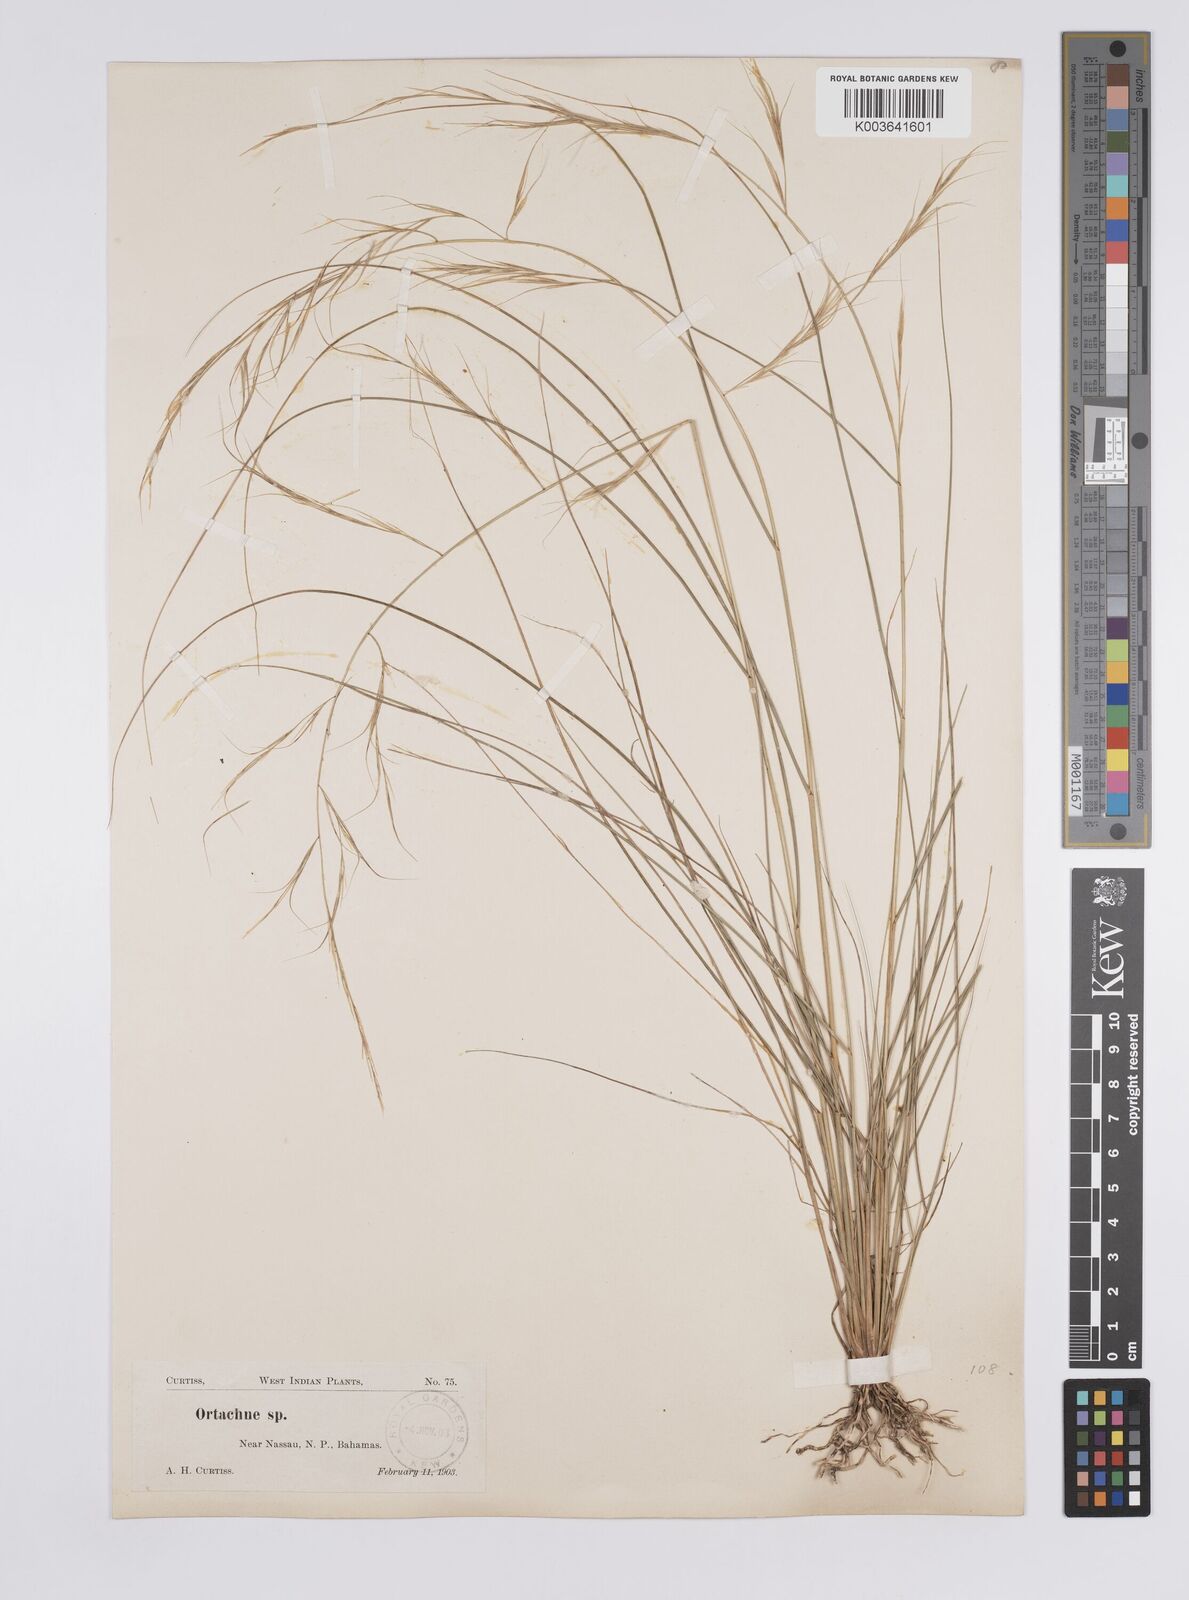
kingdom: Plantae
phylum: Tracheophyta
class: Liliopsida
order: Poales
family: Poaceae
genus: Aristida
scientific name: Aristida ternipes
